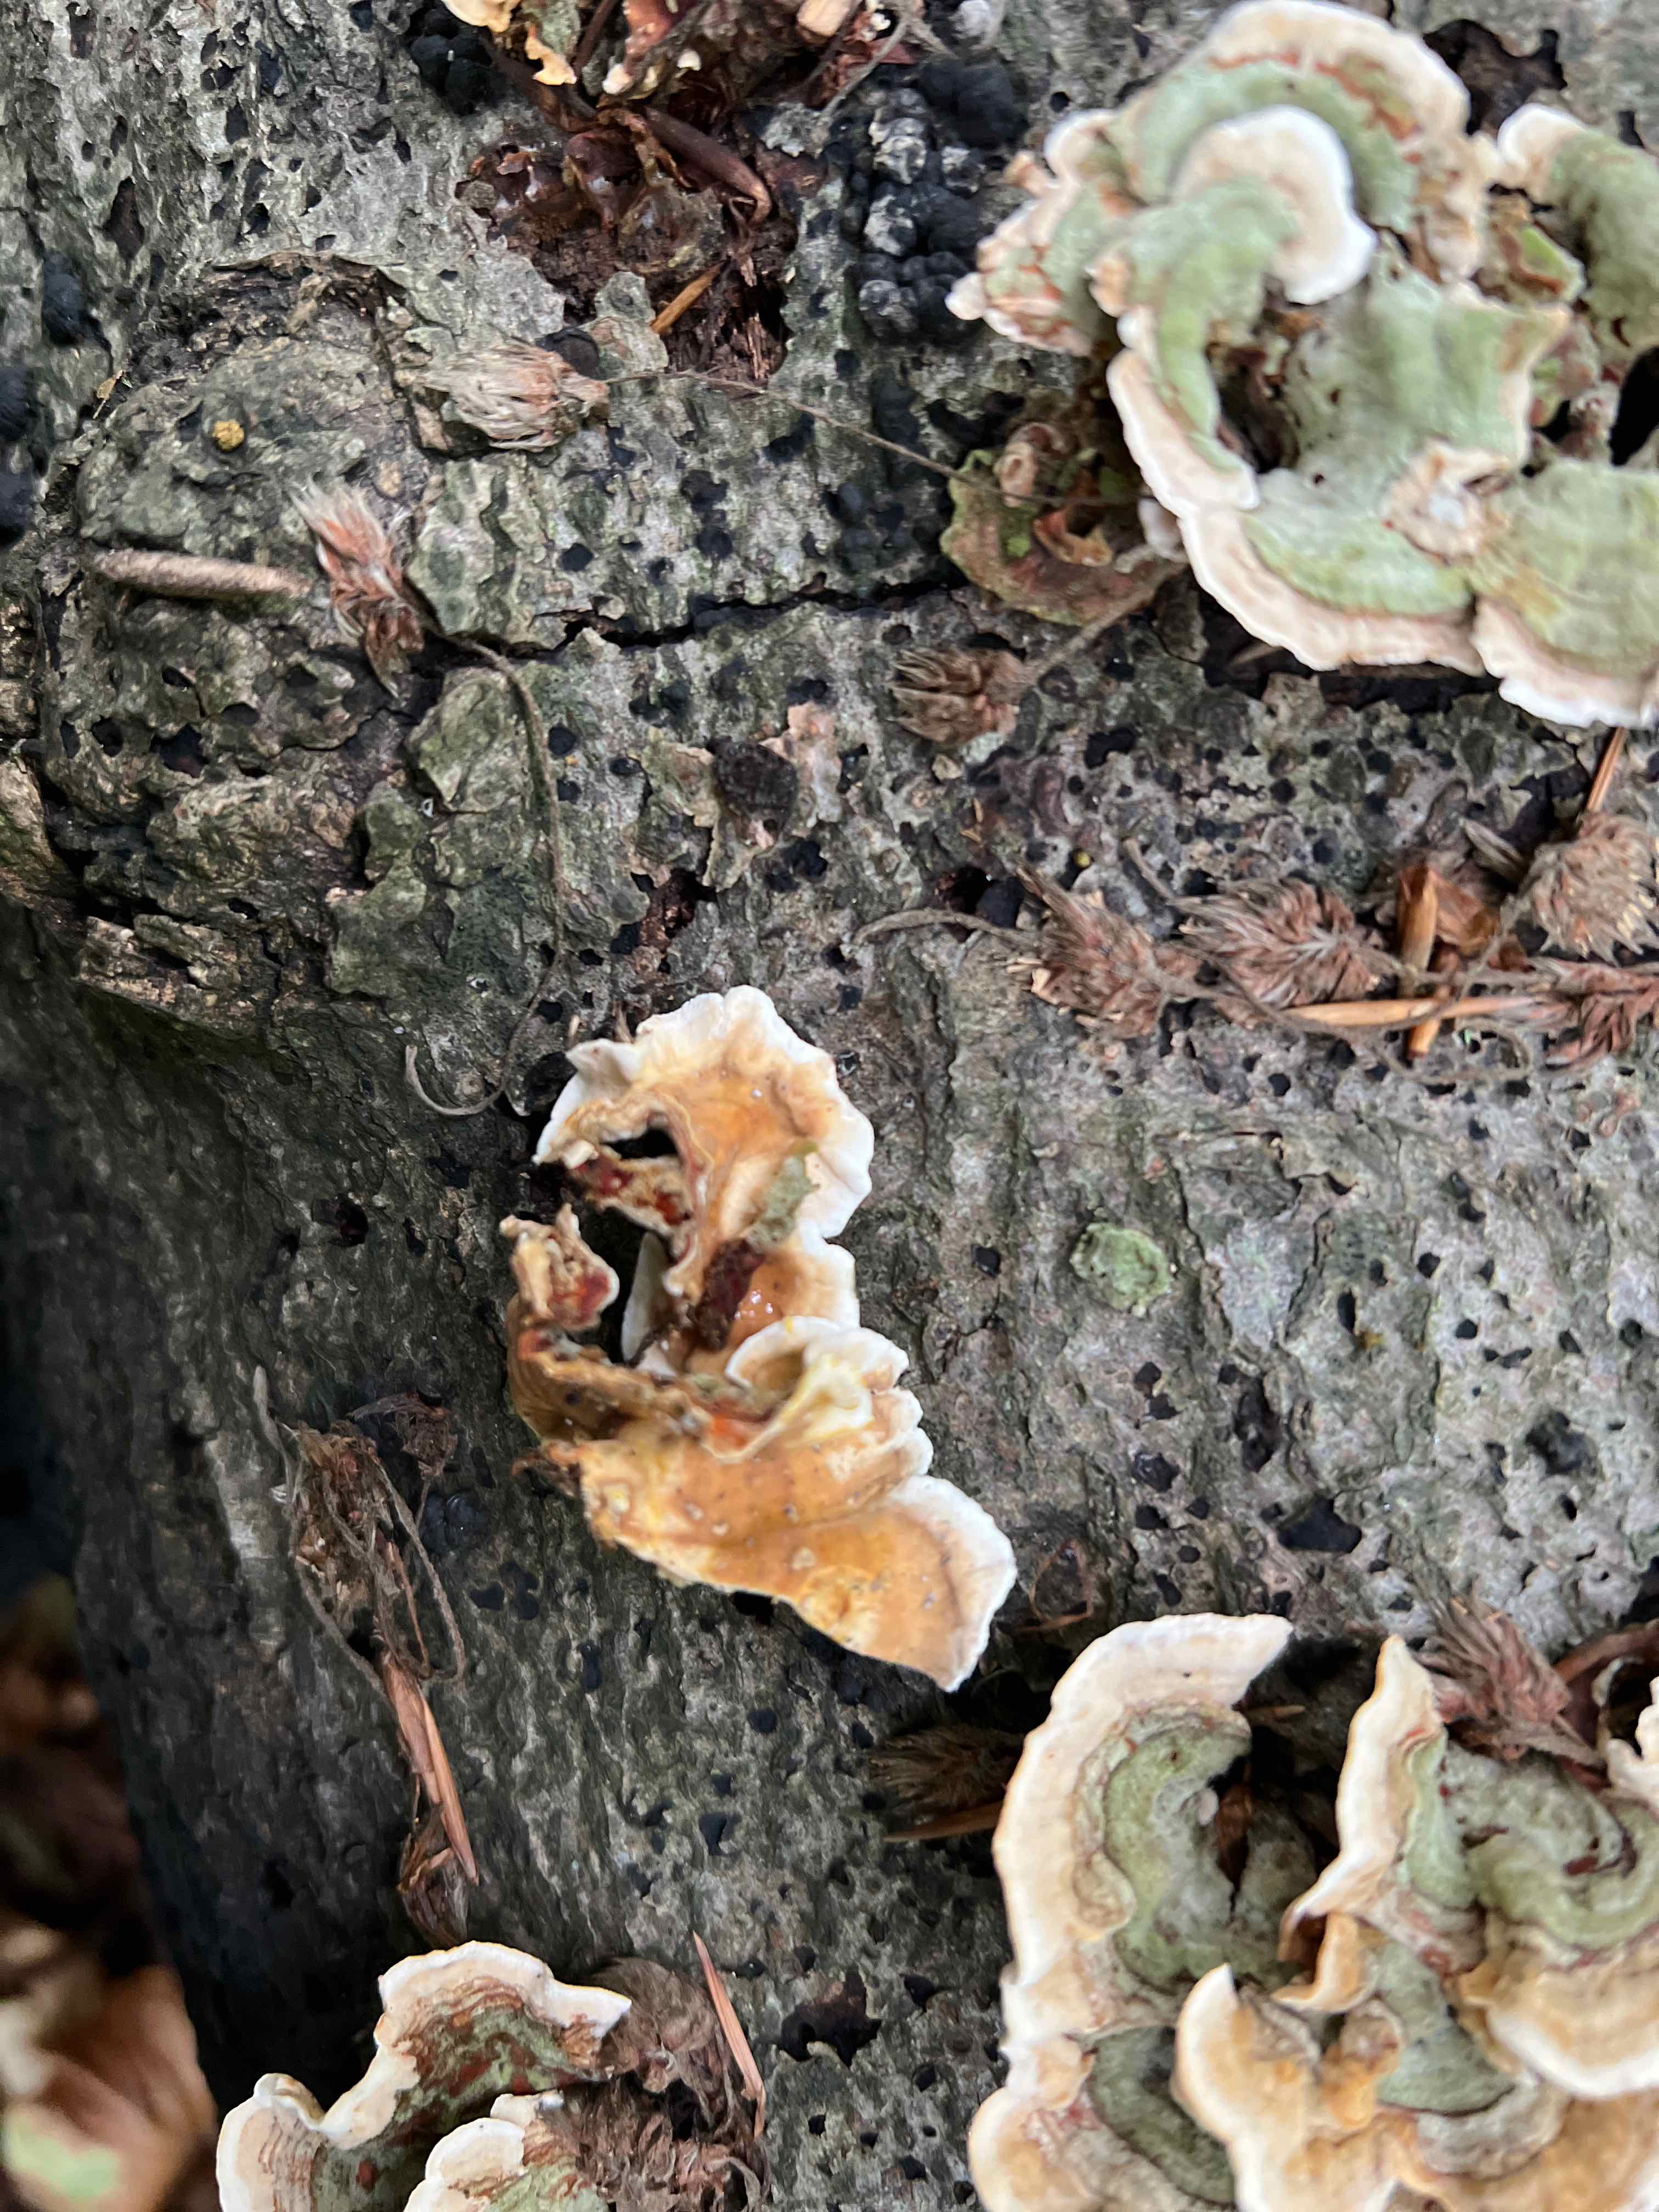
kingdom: Fungi
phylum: Basidiomycota
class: Agaricomycetes
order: Russulales
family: Stereaceae
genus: Stereum
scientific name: Stereum hirsutum
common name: håret lædersvamp
